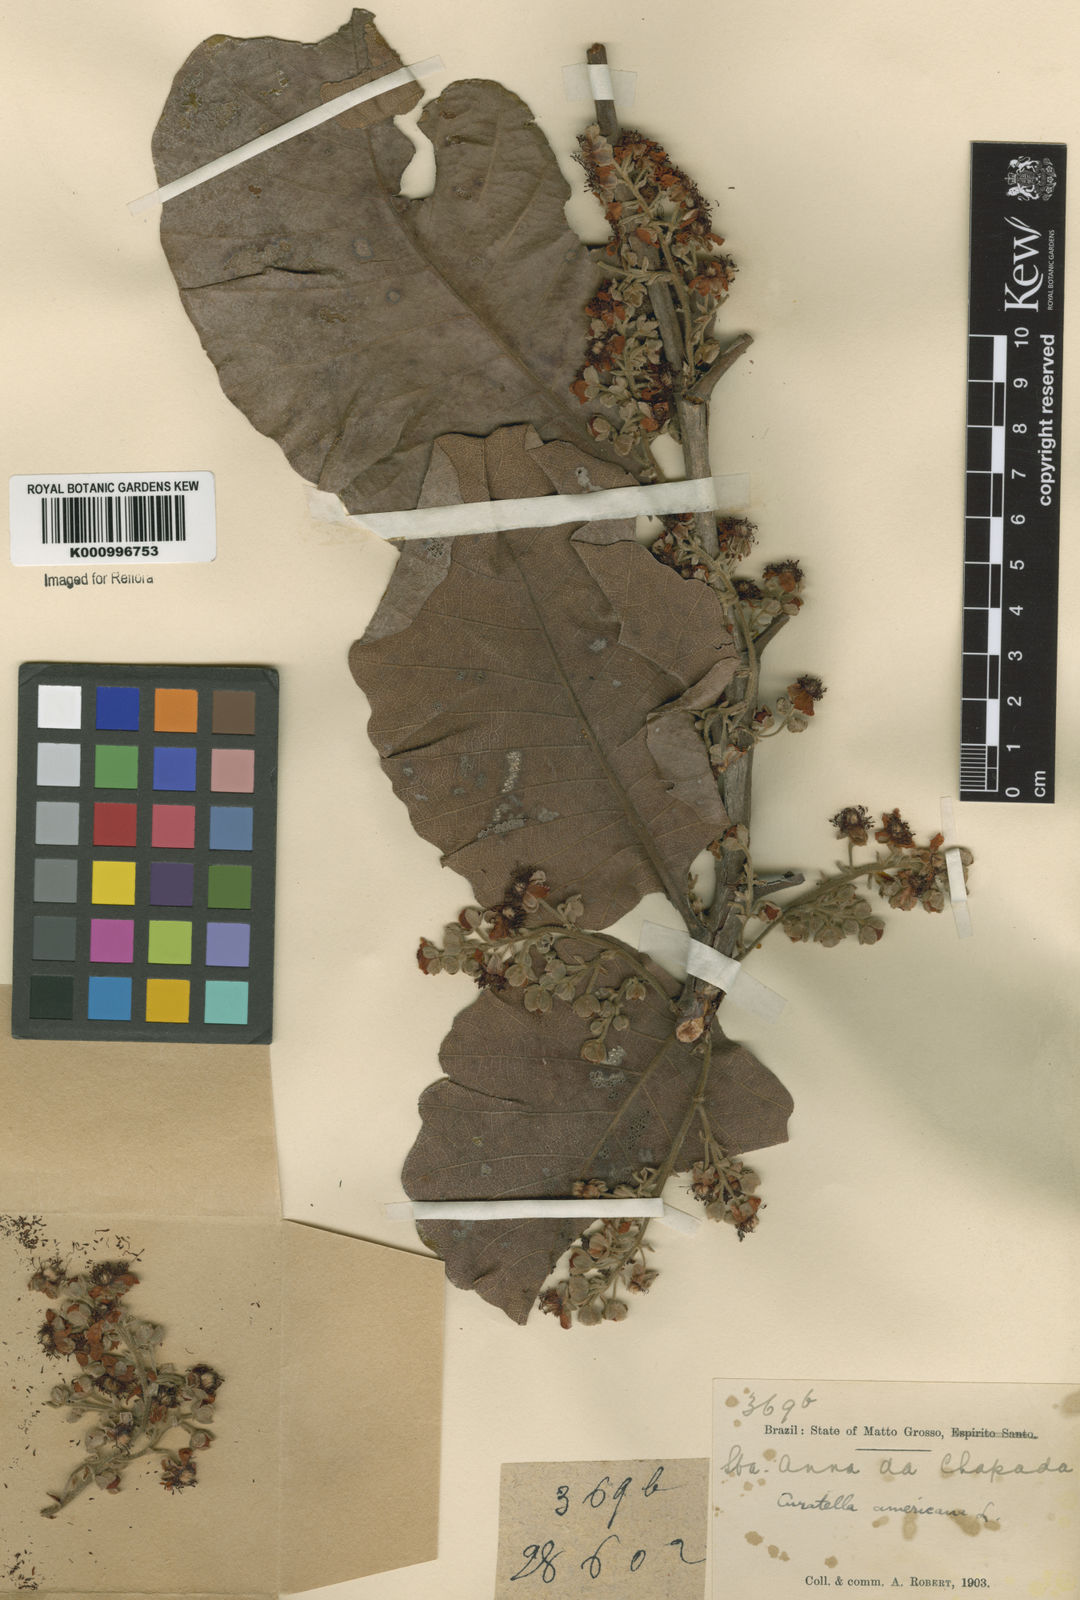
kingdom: Plantae
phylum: Tracheophyta
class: Magnoliopsida
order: Dilleniales
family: Dilleniaceae
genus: Curatella
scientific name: Curatella americana
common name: Sandpaper tree
